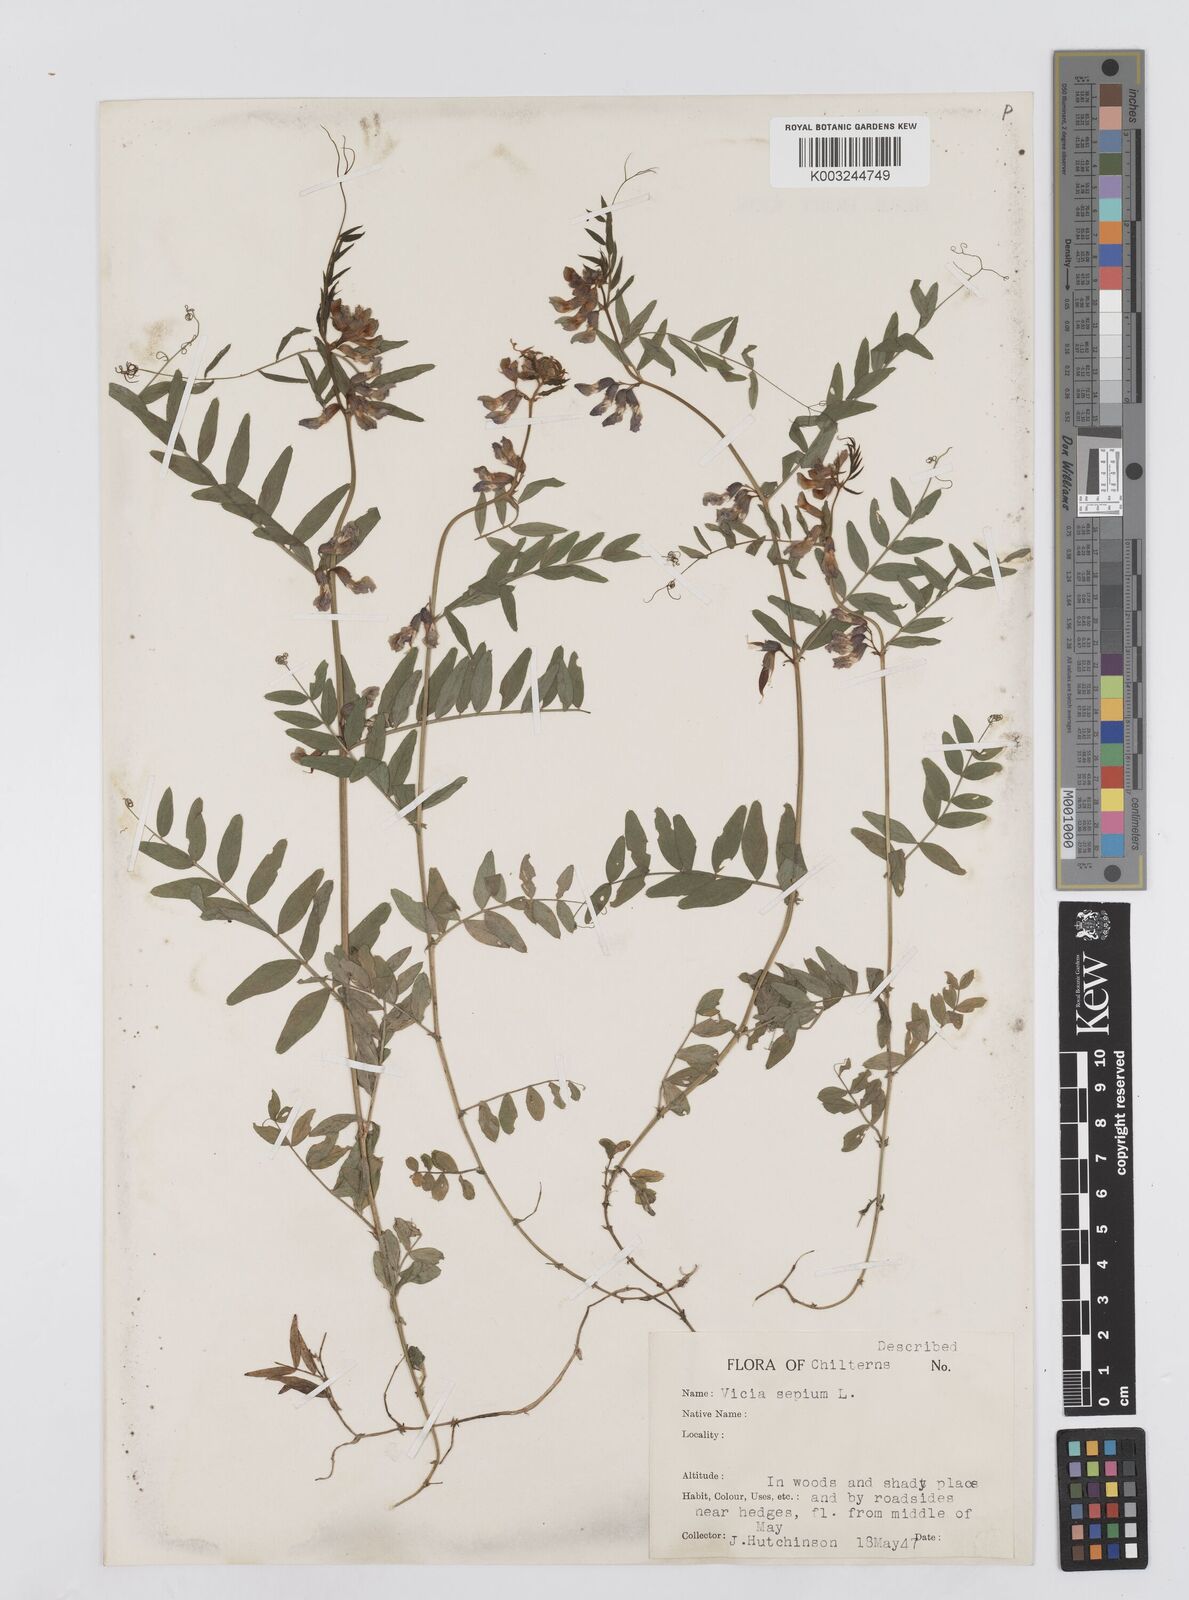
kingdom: Plantae
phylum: Tracheophyta
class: Magnoliopsida
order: Fabales
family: Fabaceae
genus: Vicia
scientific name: Vicia sepium
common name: Bush vetch
